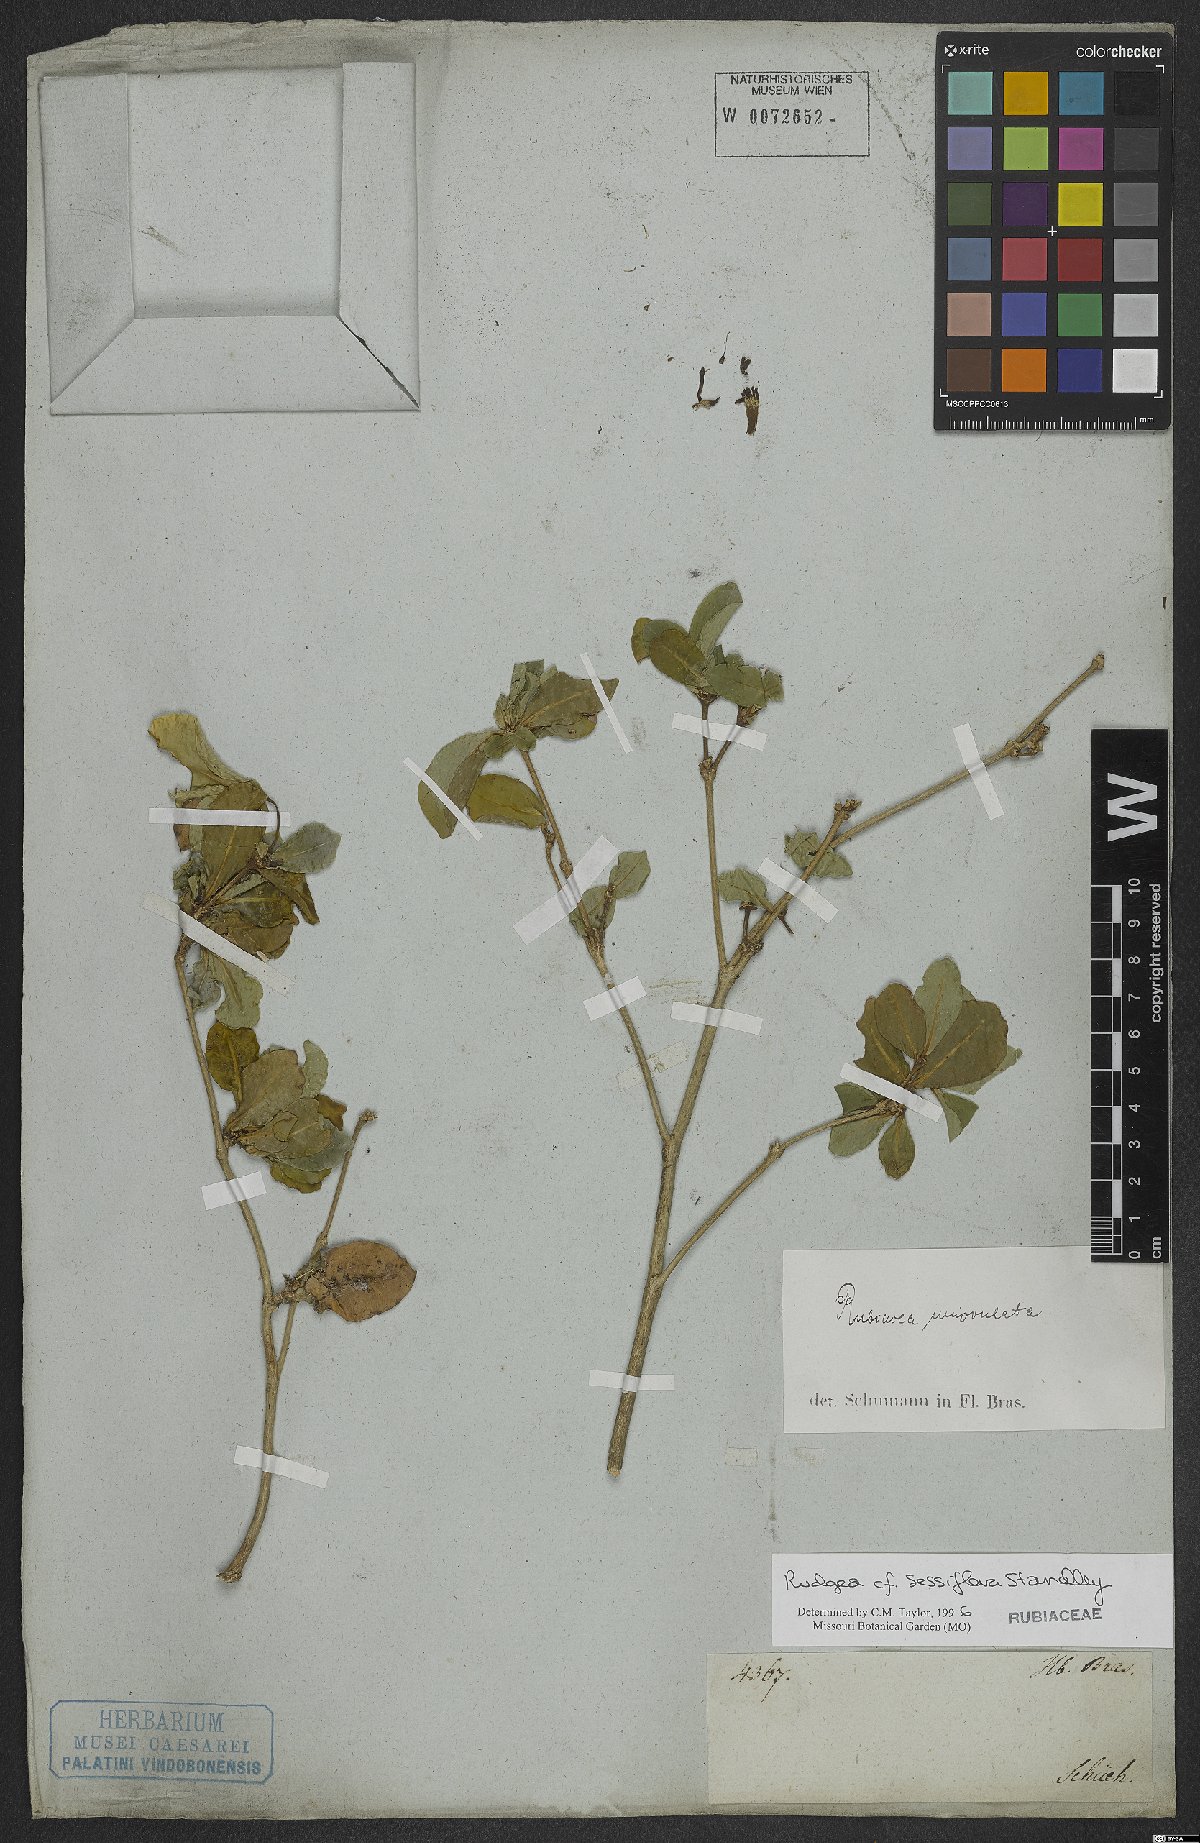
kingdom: Plantae
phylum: Tracheophyta
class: Magnoliopsida
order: Gentianales
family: Rubiaceae
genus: Rudgea
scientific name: Rudgea sessiliflora
